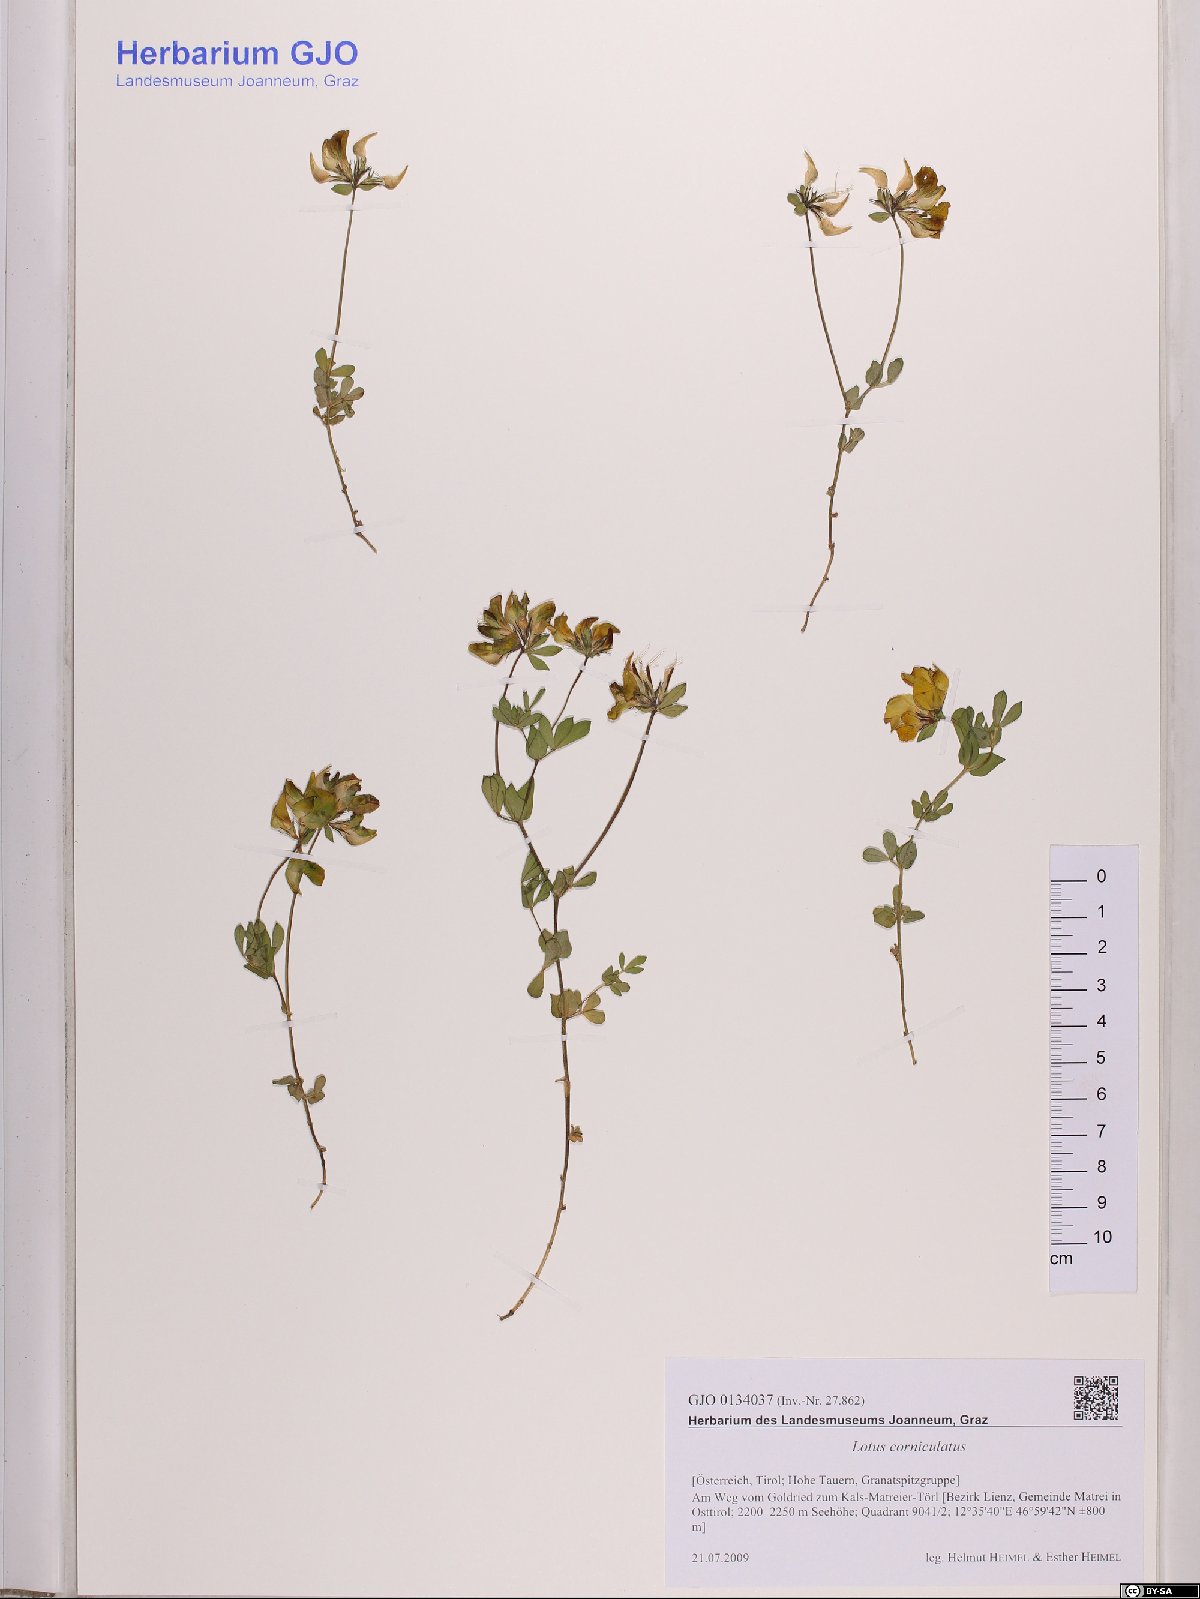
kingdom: Plantae
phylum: Tracheophyta
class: Magnoliopsida
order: Fabales
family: Fabaceae
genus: Lotus
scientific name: Lotus corniculatus
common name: Common bird's-foot-trefoil
